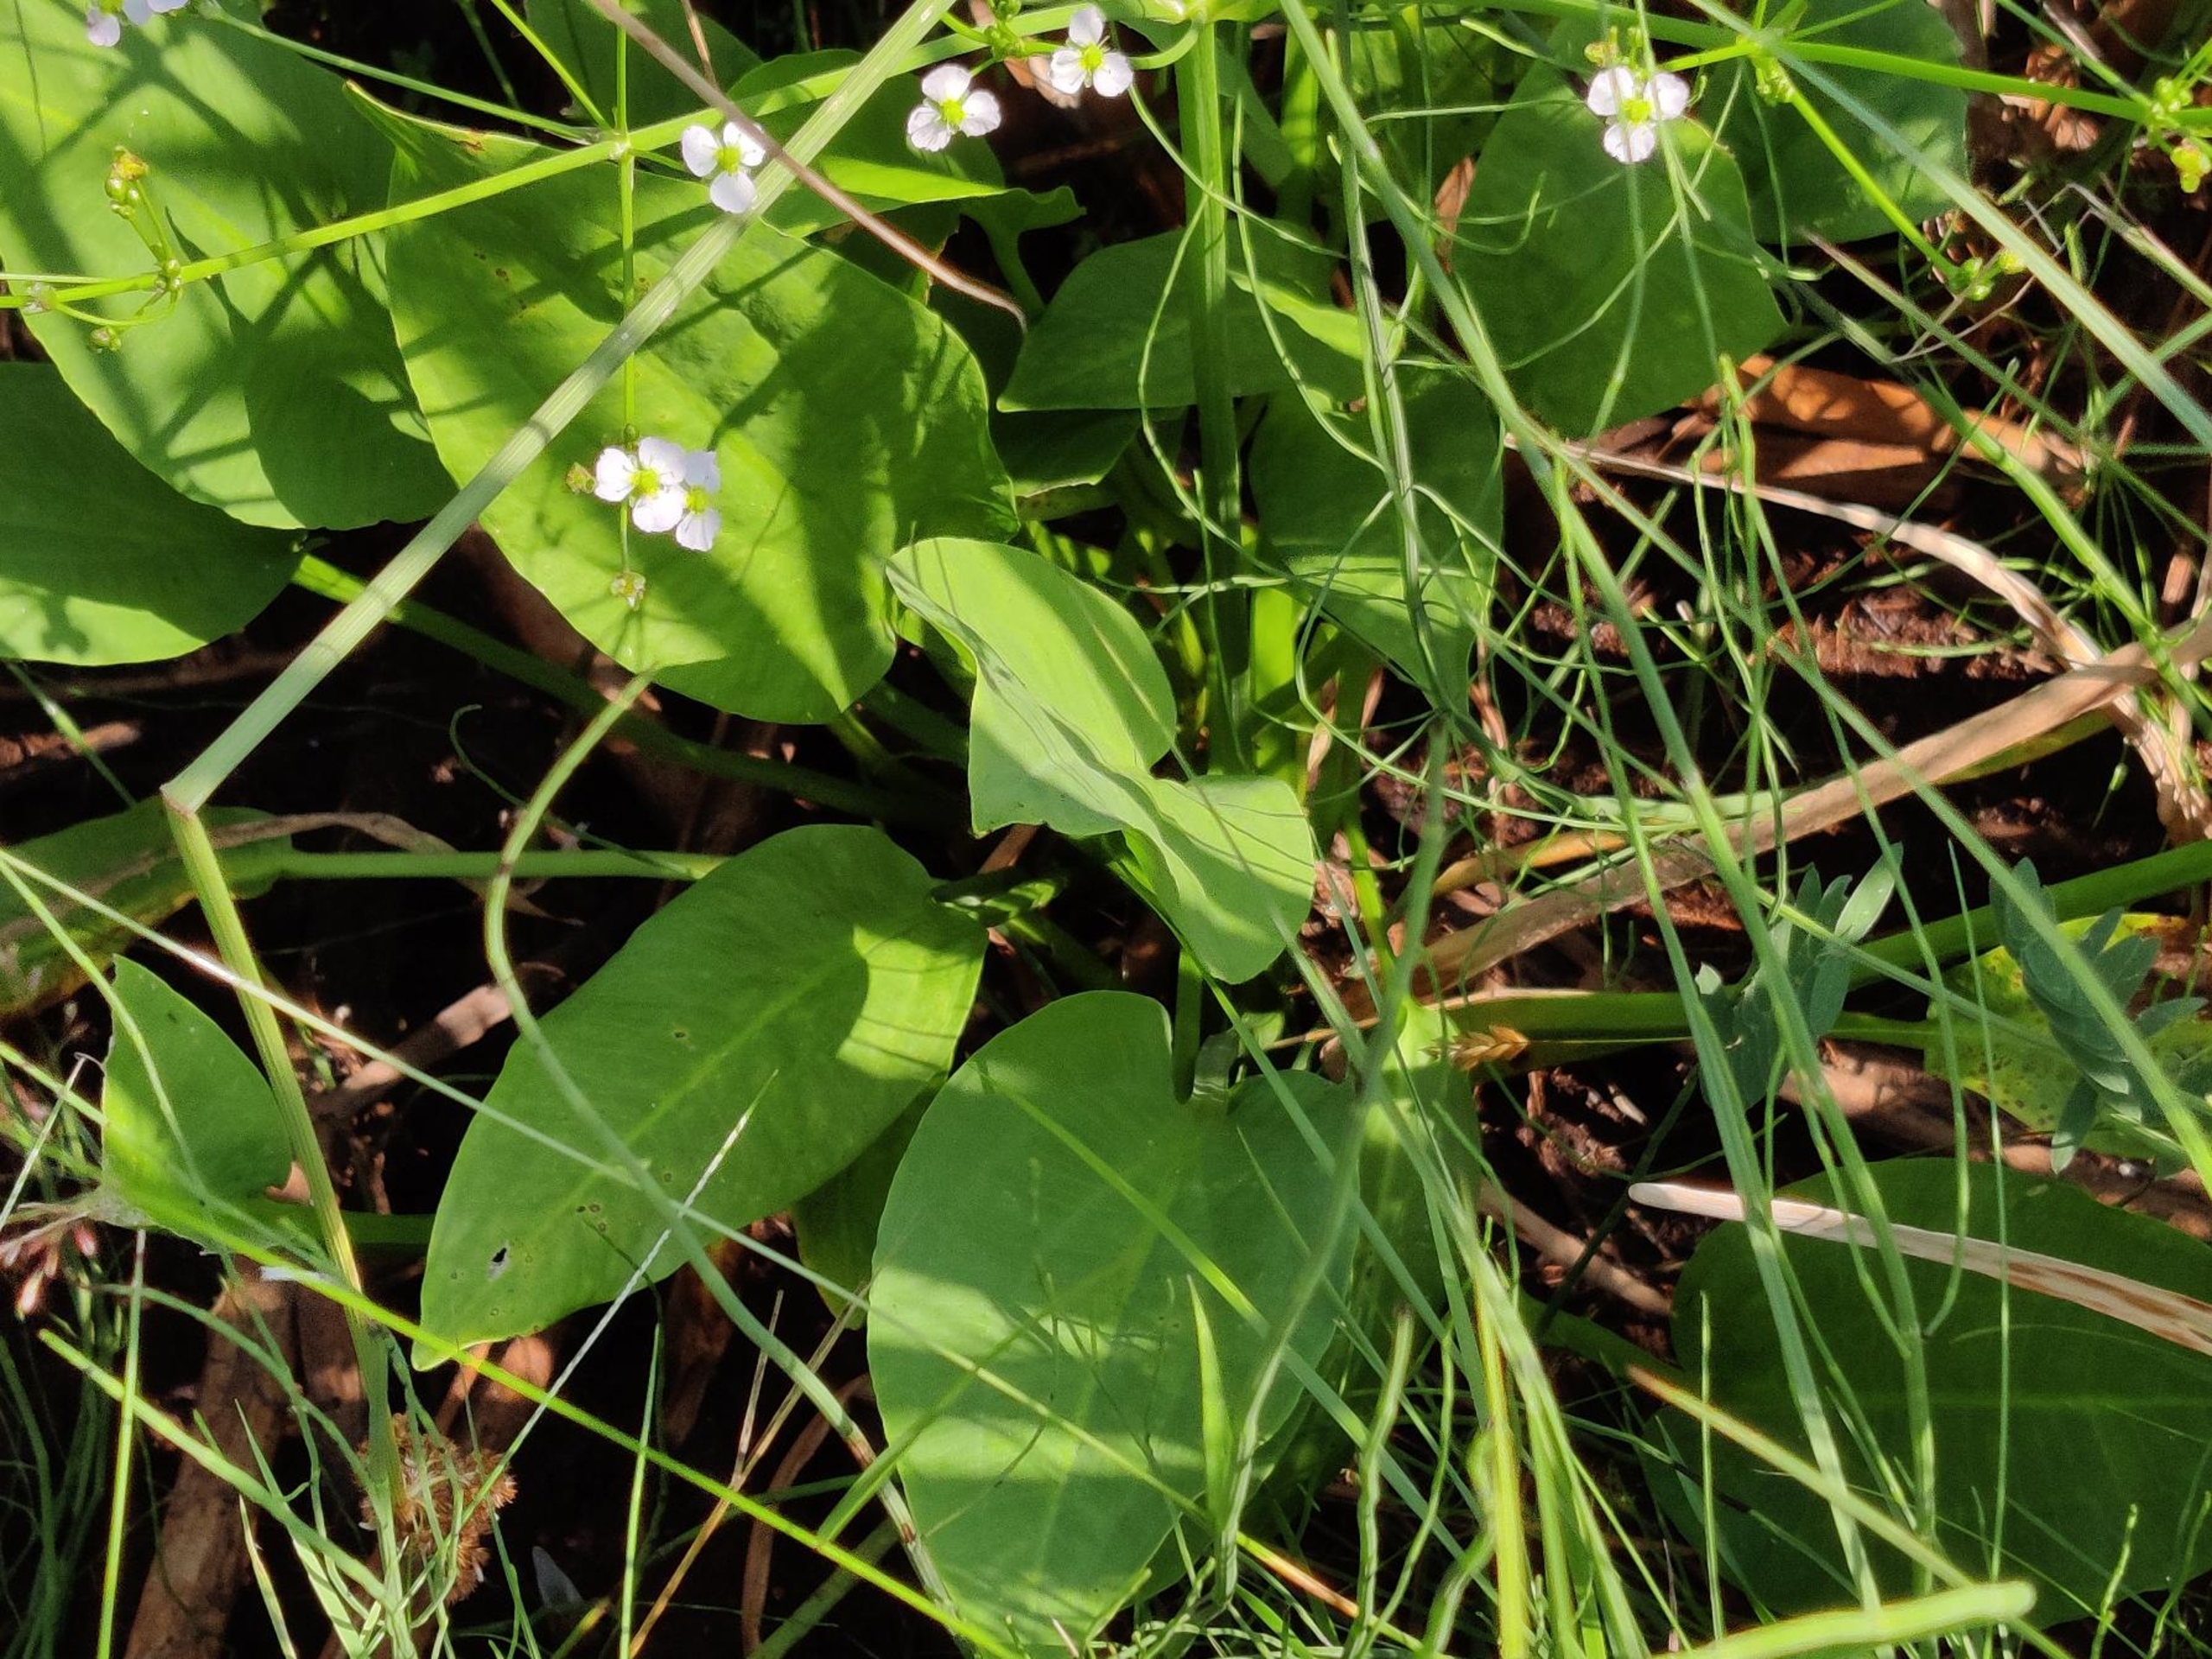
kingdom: Plantae
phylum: Tracheophyta
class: Liliopsida
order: Alismatales
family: Alismataceae
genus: Alisma
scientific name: Alisma plantago-aquatica
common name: Vejbred-skeblad
